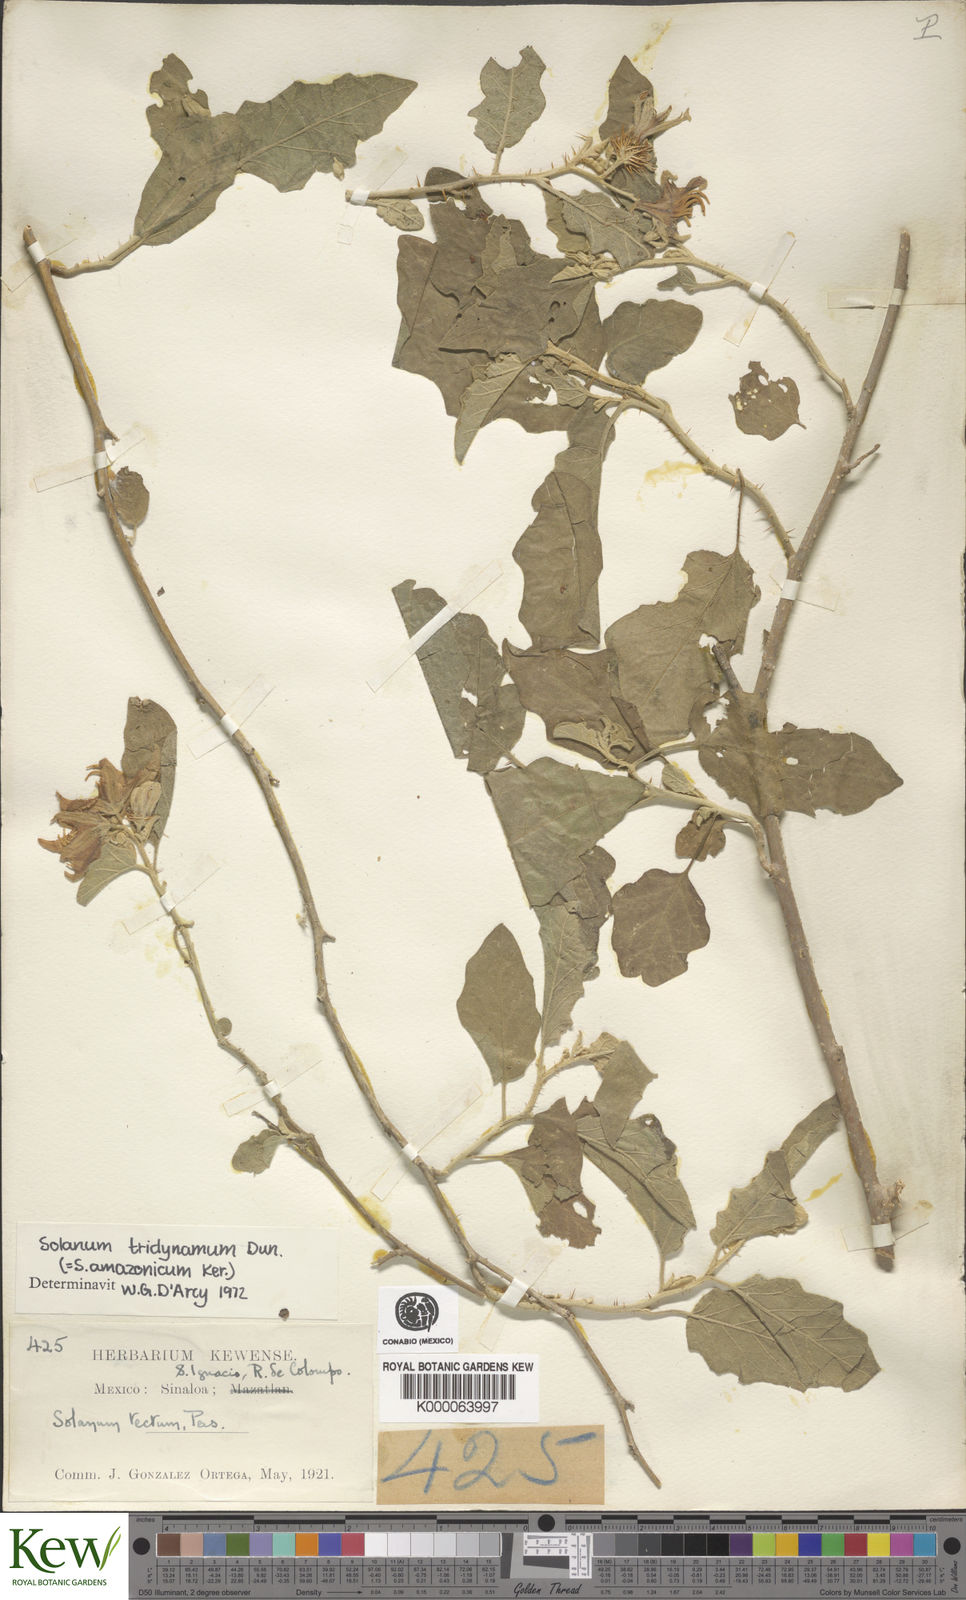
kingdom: Plantae
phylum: Tracheophyta
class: Magnoliopsida
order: Solanales
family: Solanaceae
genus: Solanum
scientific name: Solanum houstonii
